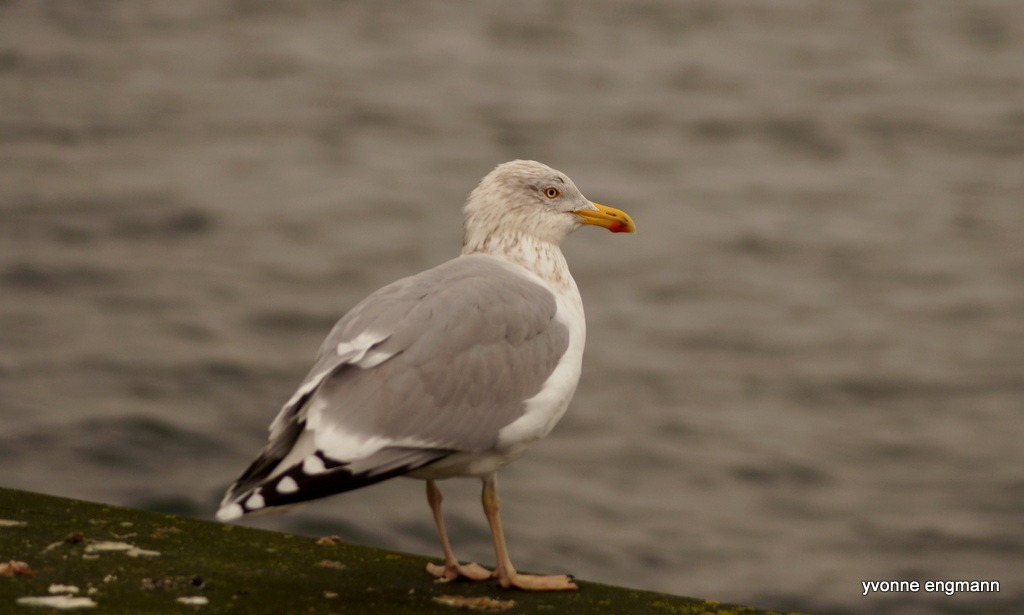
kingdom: Animalia
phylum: Chordata
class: Aves
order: Charadriiformes
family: Laridae
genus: Larus
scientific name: Larus argentatus
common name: Sølvmåge
